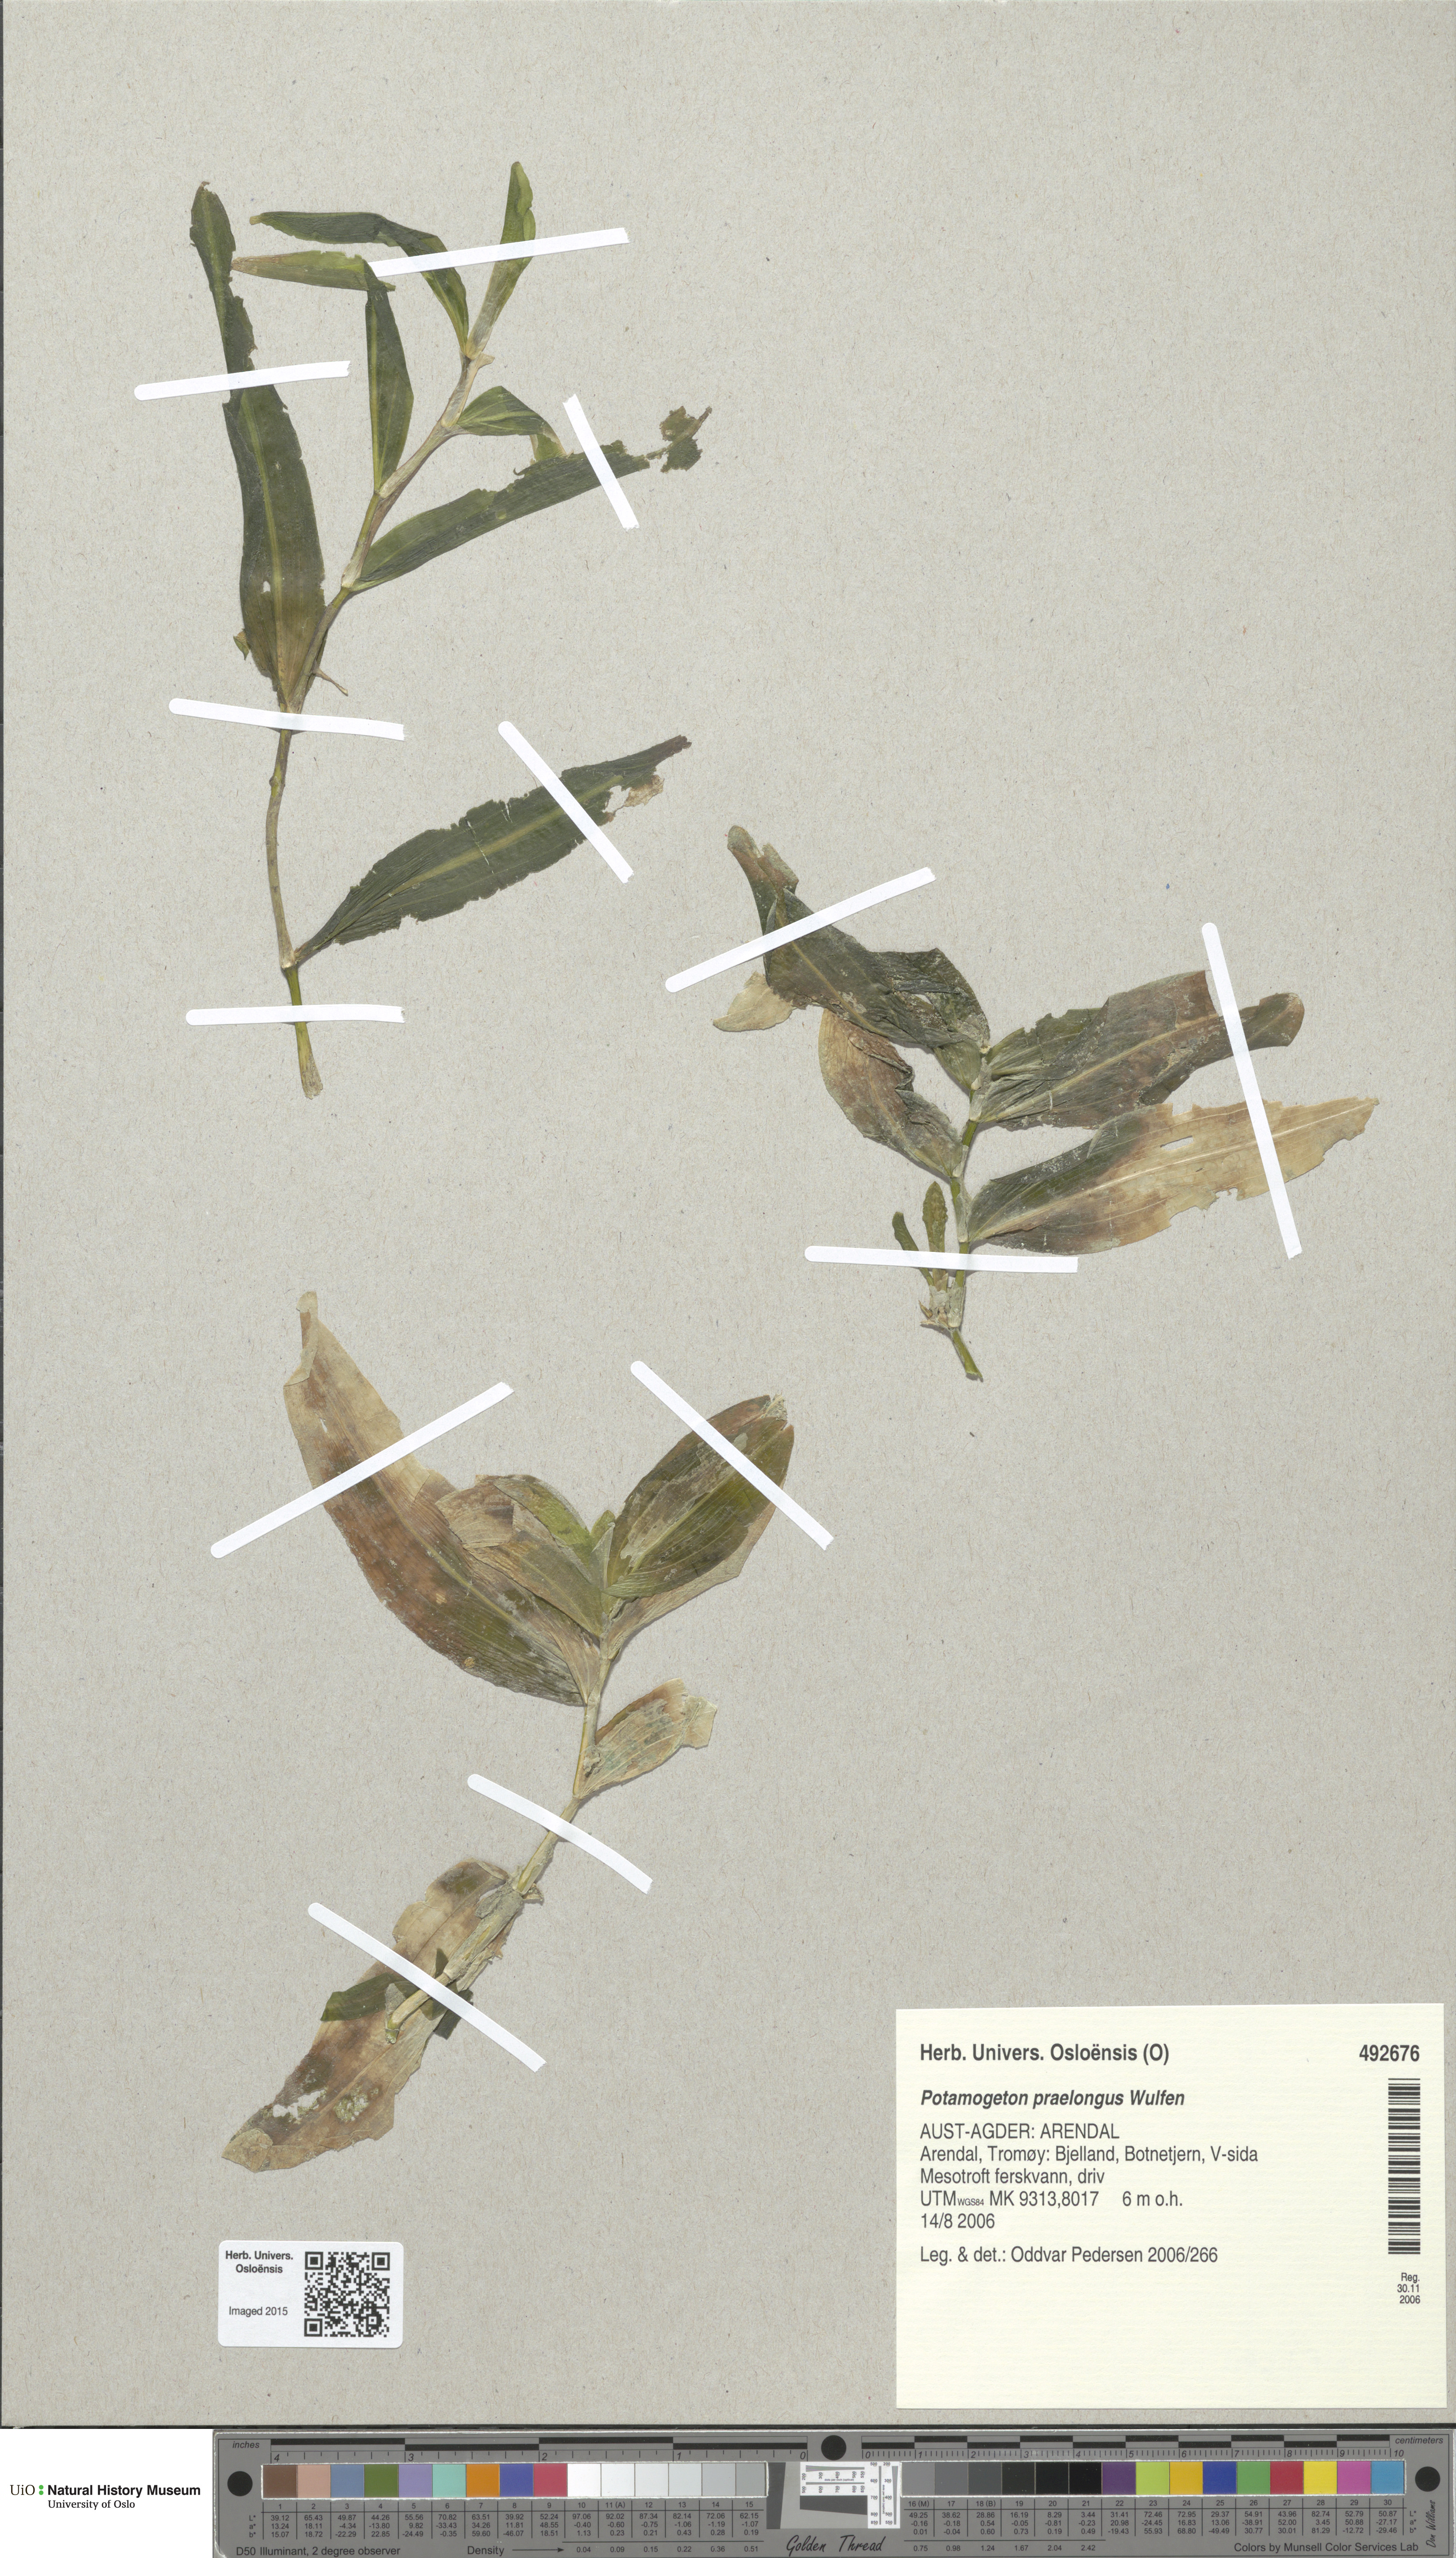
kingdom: Plantae
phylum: Tracheophyta
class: Liliopsida
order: Alismatales
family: Potamogetonaceae
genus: Potamogeton
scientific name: Potamogeton praelongus
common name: Long-stalked pondweed
